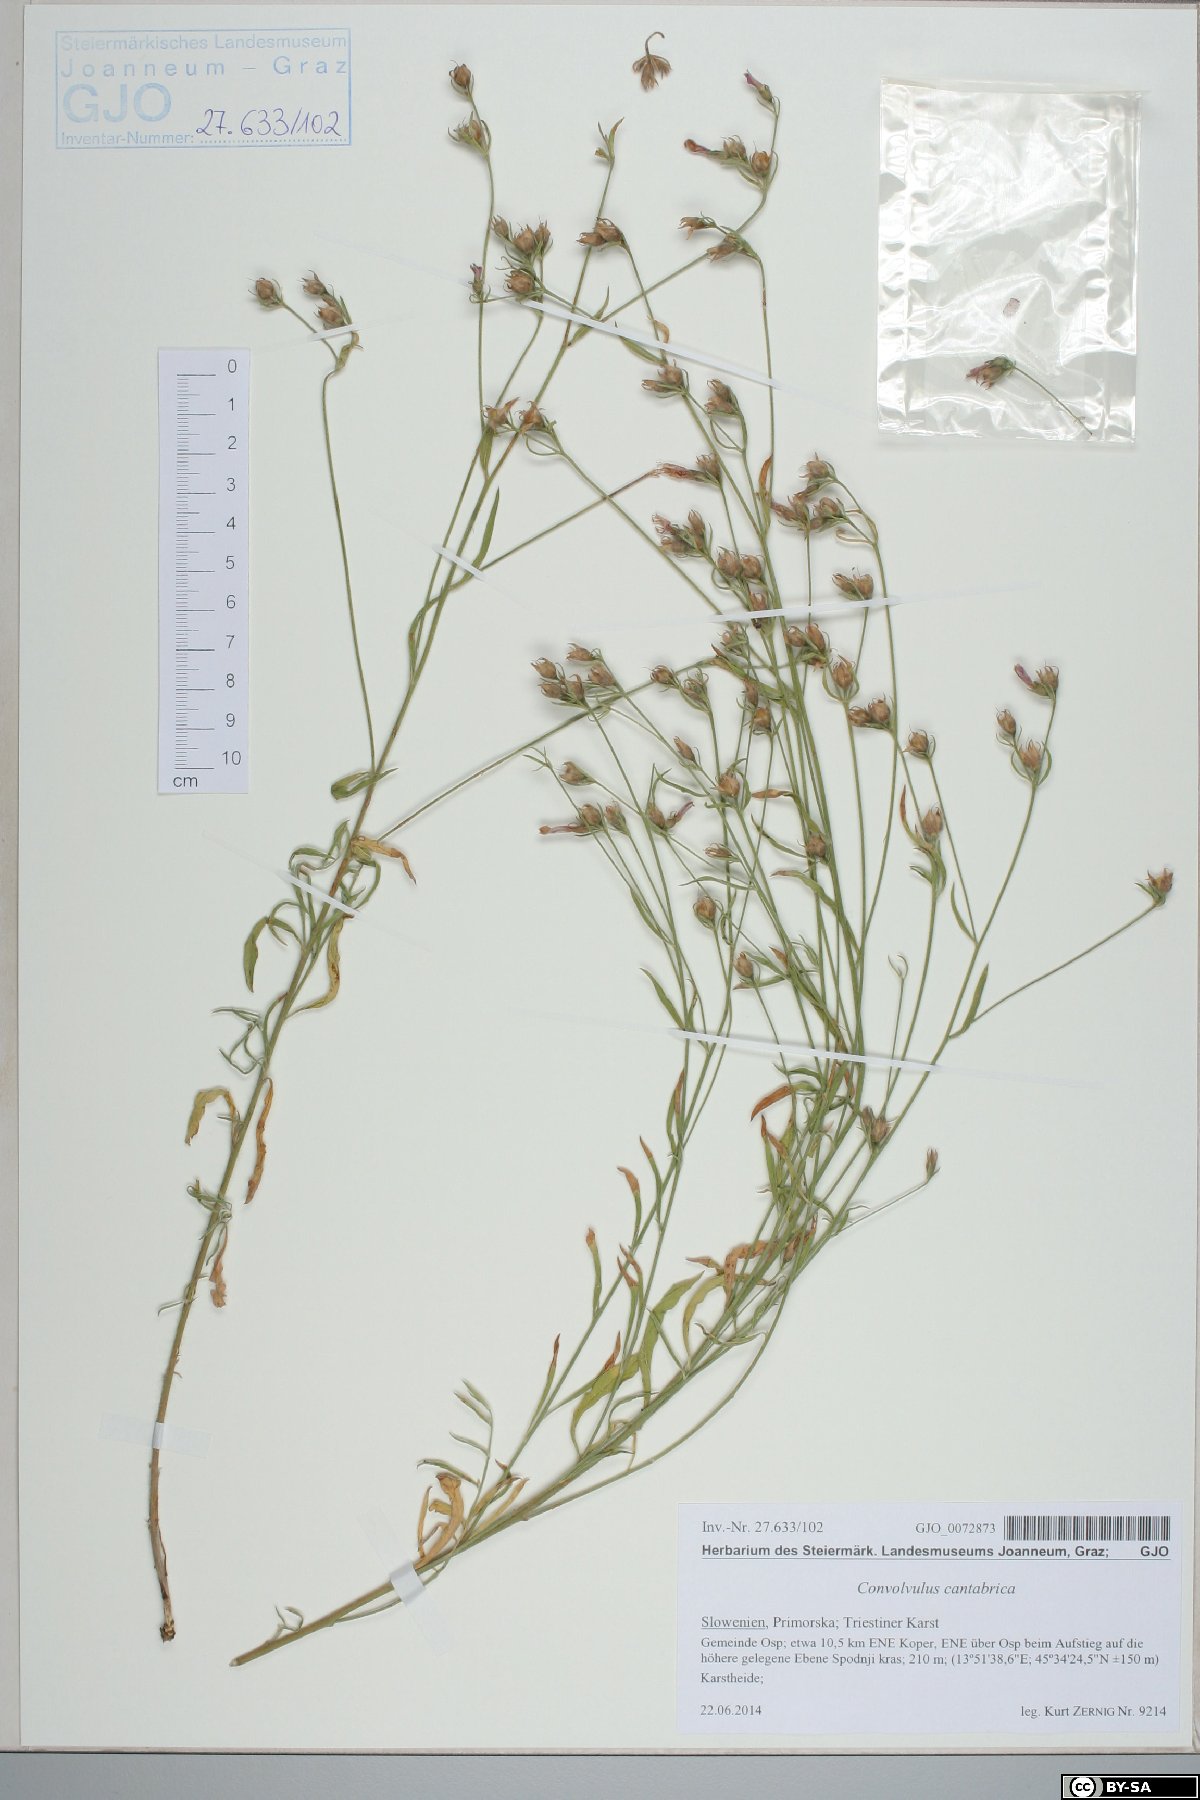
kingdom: Plantae
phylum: Tracheophyta
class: Magnoliopsida
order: Solanales
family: Convolvulaceae
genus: Convolvulus
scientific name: Convolvulus cantabrica
